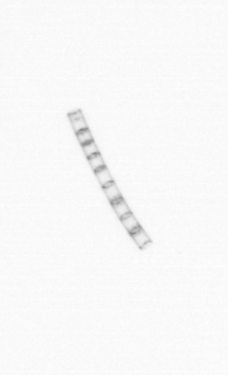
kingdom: Chromista
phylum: Ochrophyta
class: Bacillariophyceae
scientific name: Bacillariophyceae
